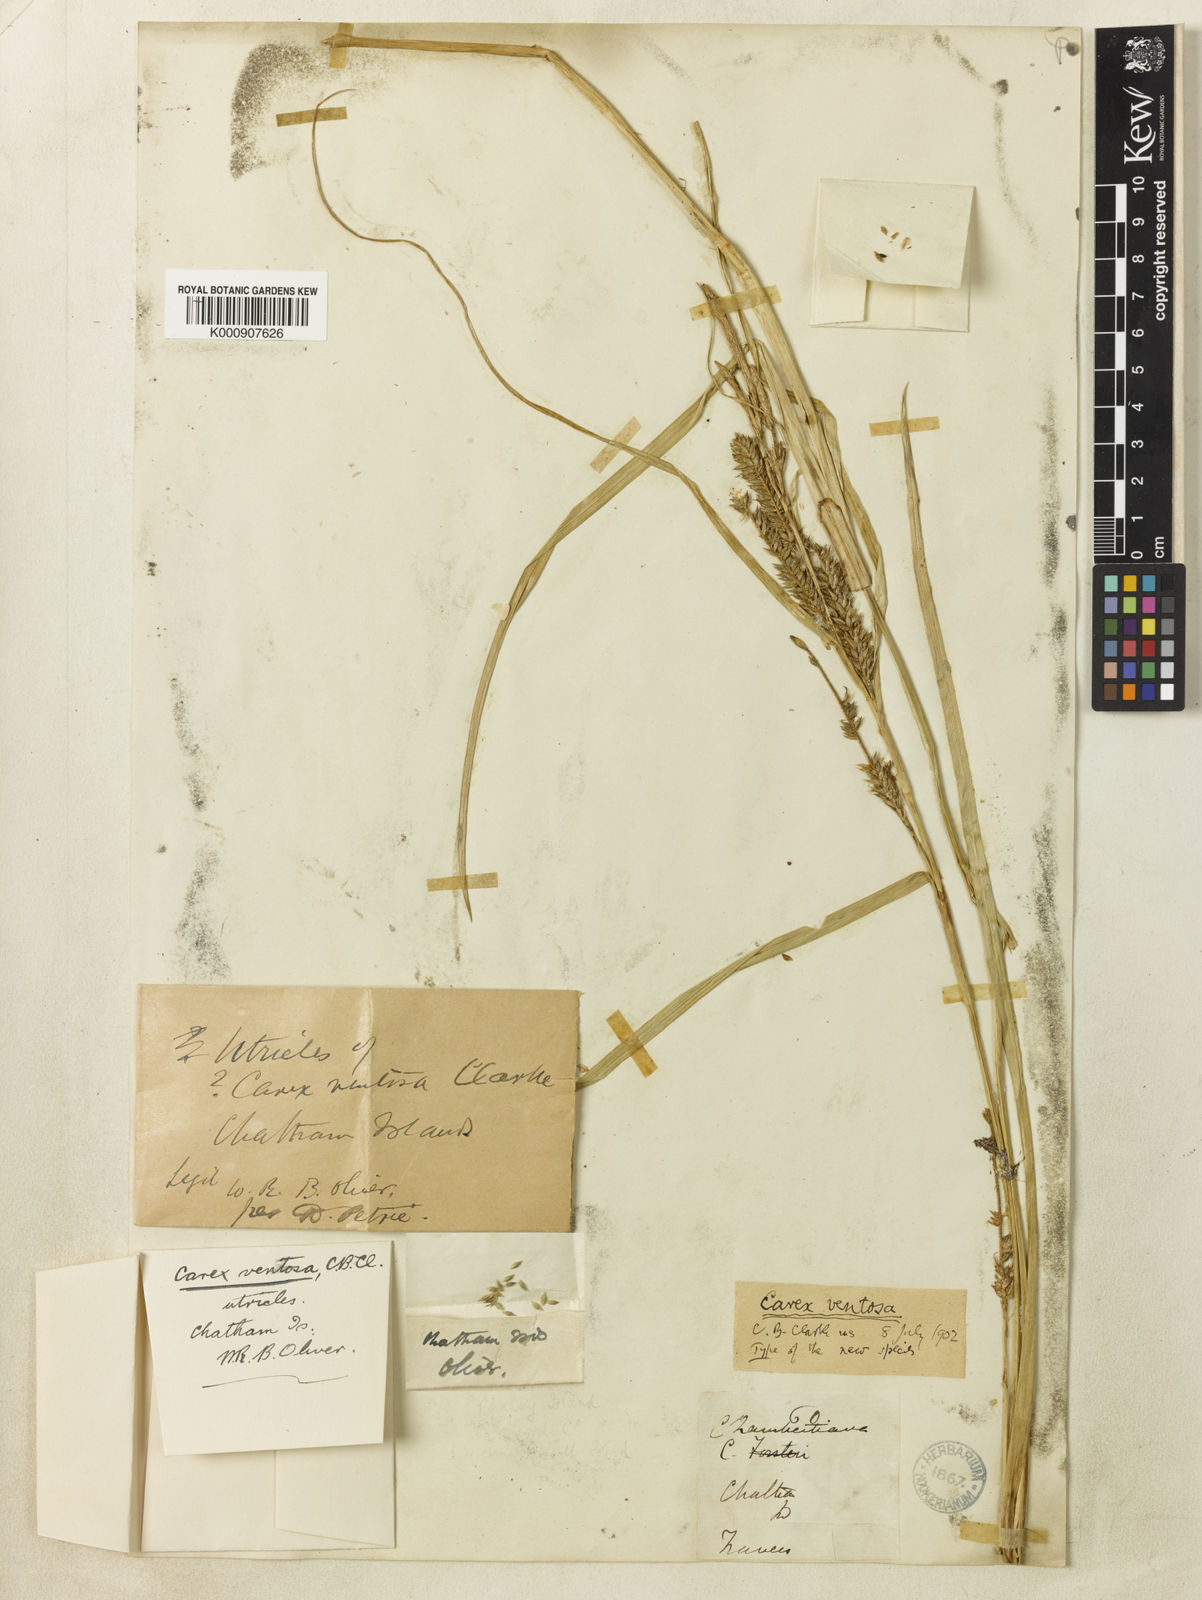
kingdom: Plantae
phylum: Tracheophyta
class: Liliopsida
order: Poales
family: Cyperaceae
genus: Carex
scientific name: Carex ventosa
